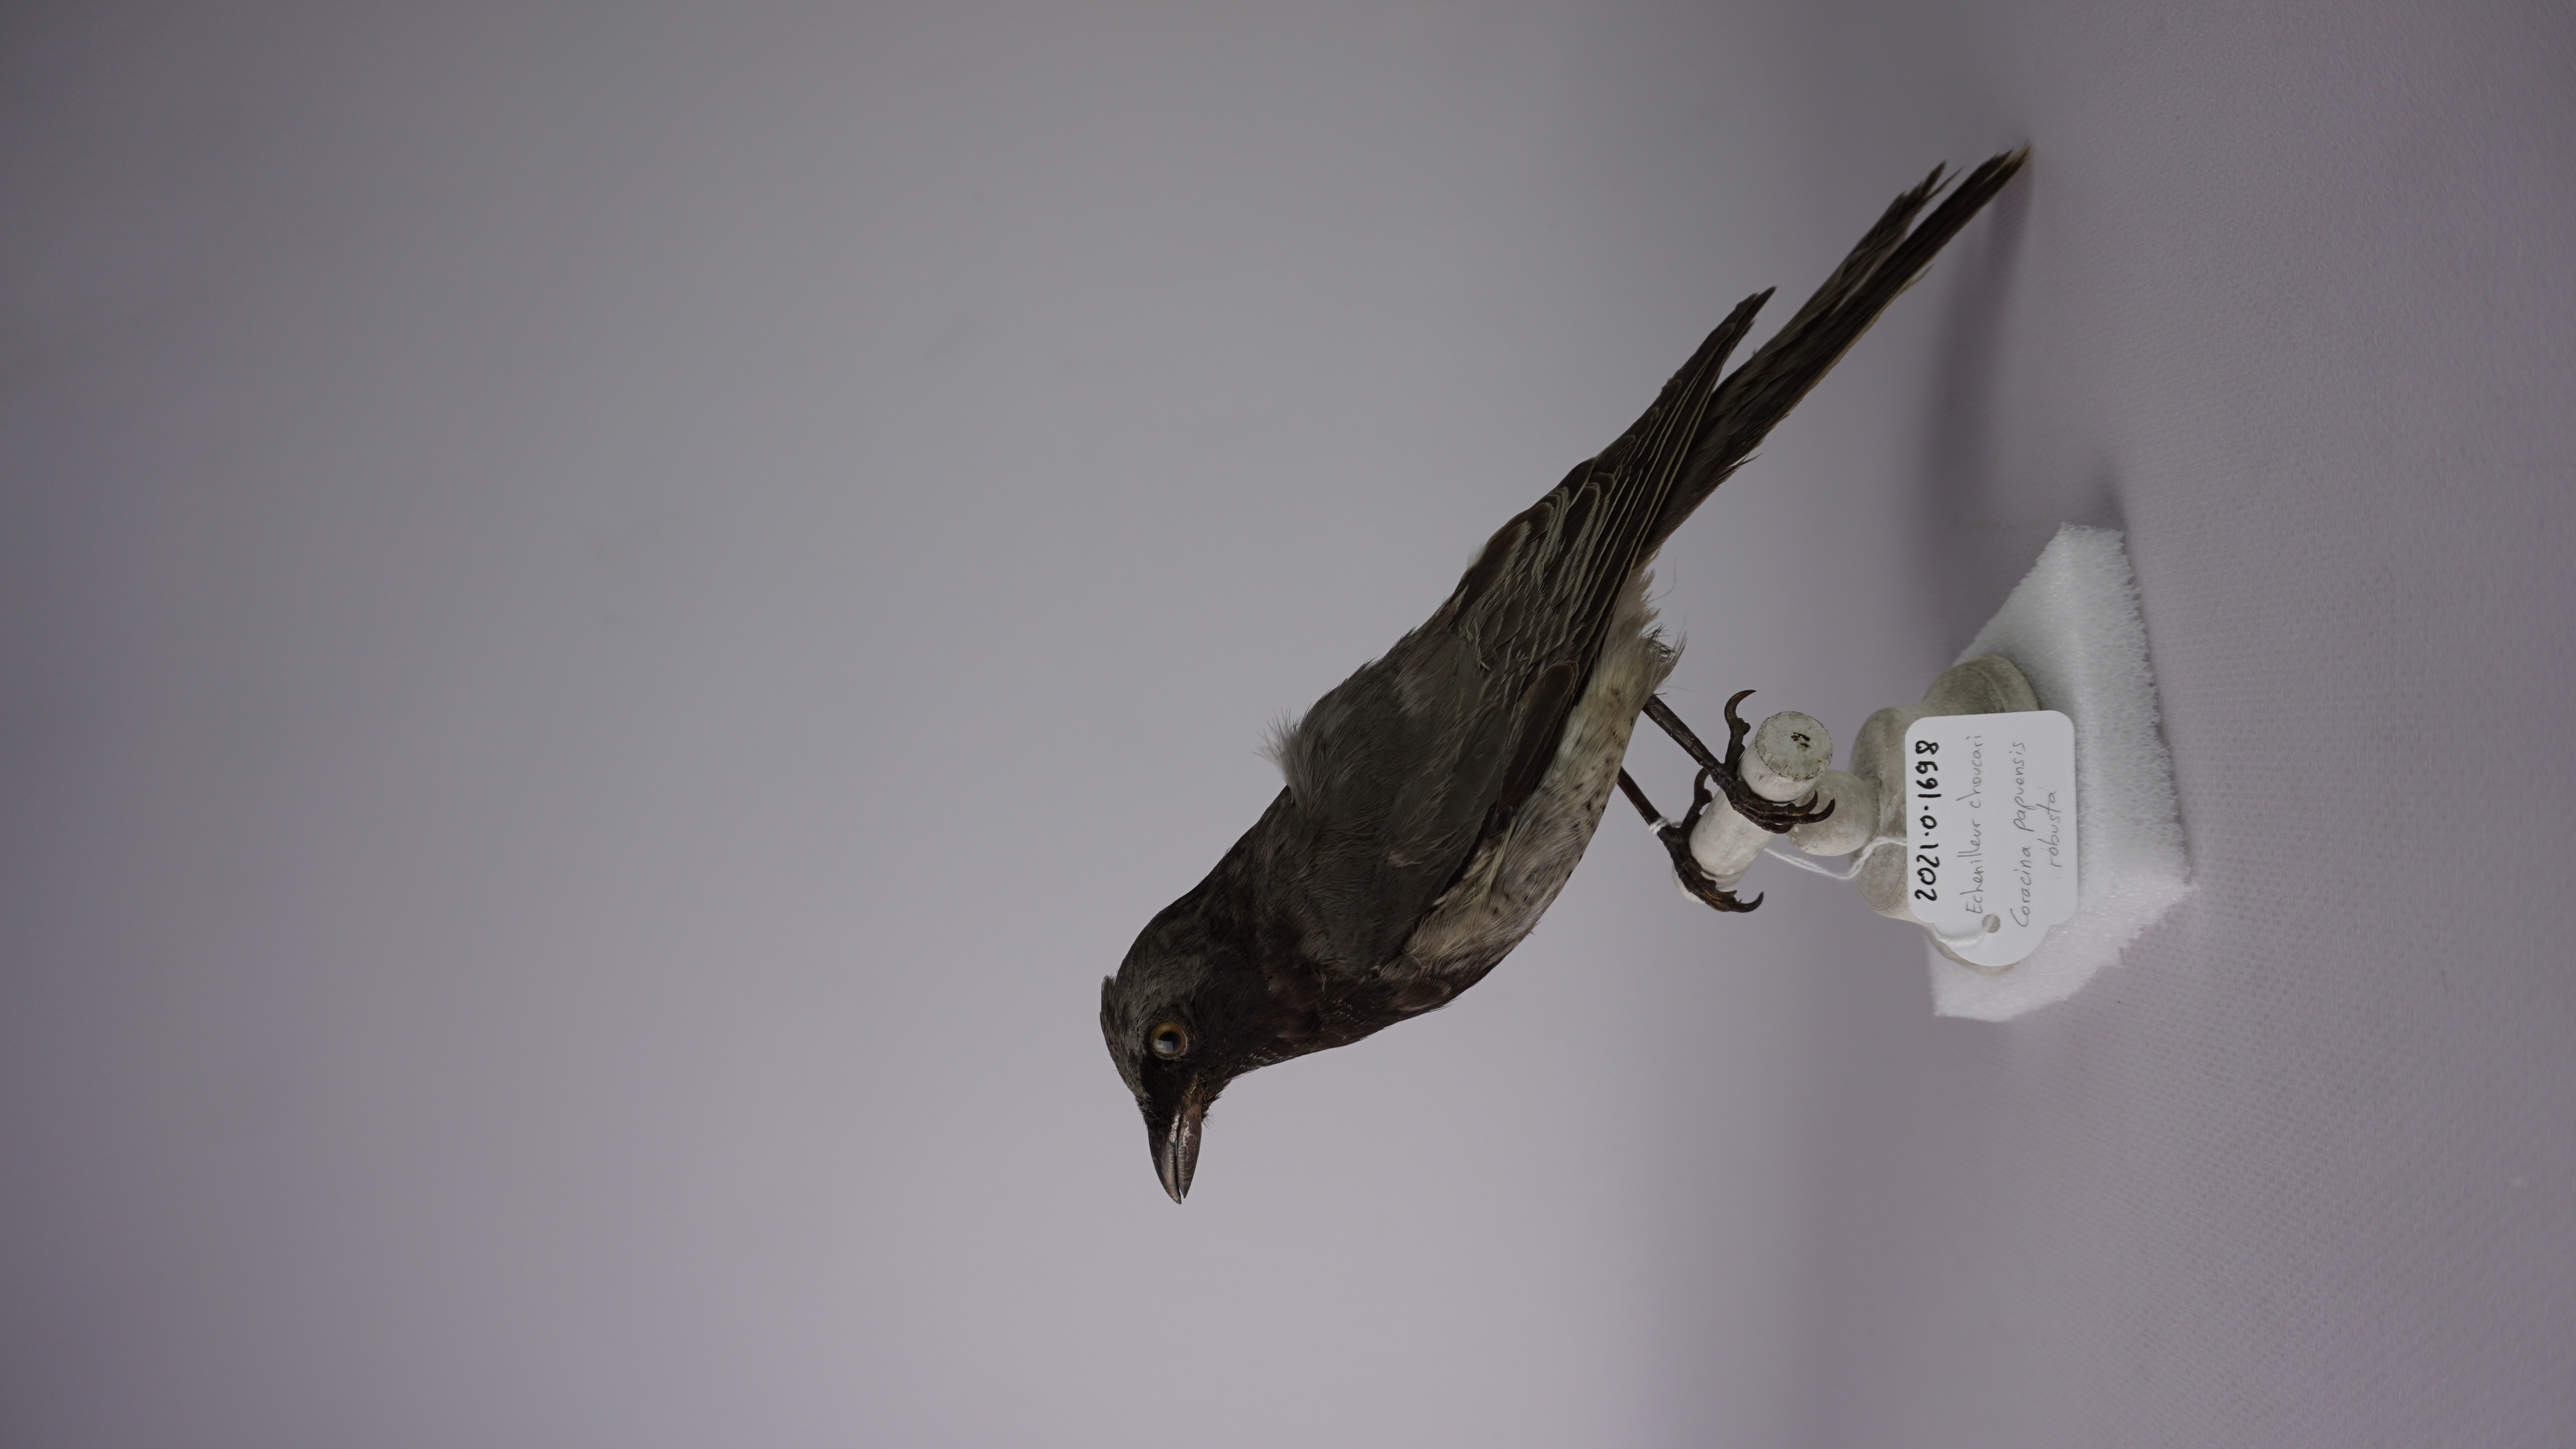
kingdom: Animalia
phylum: Chordata
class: Aves
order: Passeriformes
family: Campephagidae
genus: Coracina
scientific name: Coracina papuensis
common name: White-bellied cuckooshrike
